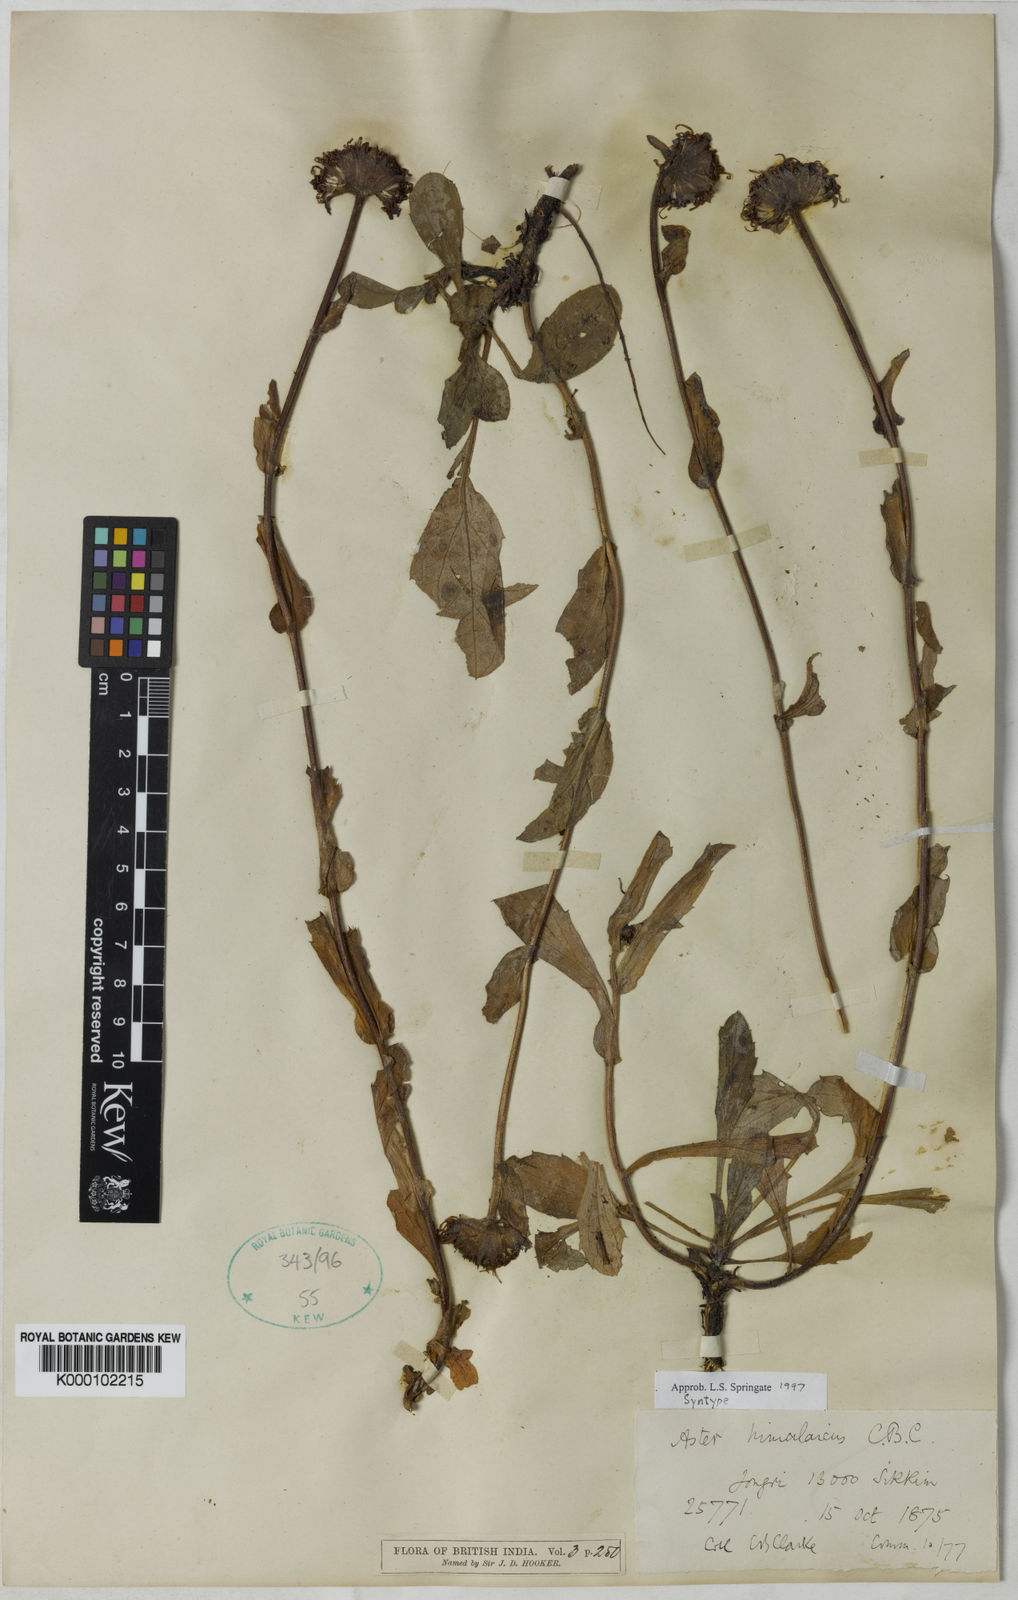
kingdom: Plantae
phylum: Tracheophyta
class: Magnoliopsida
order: Asterales
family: Asteraceae
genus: Aster
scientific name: Aster
